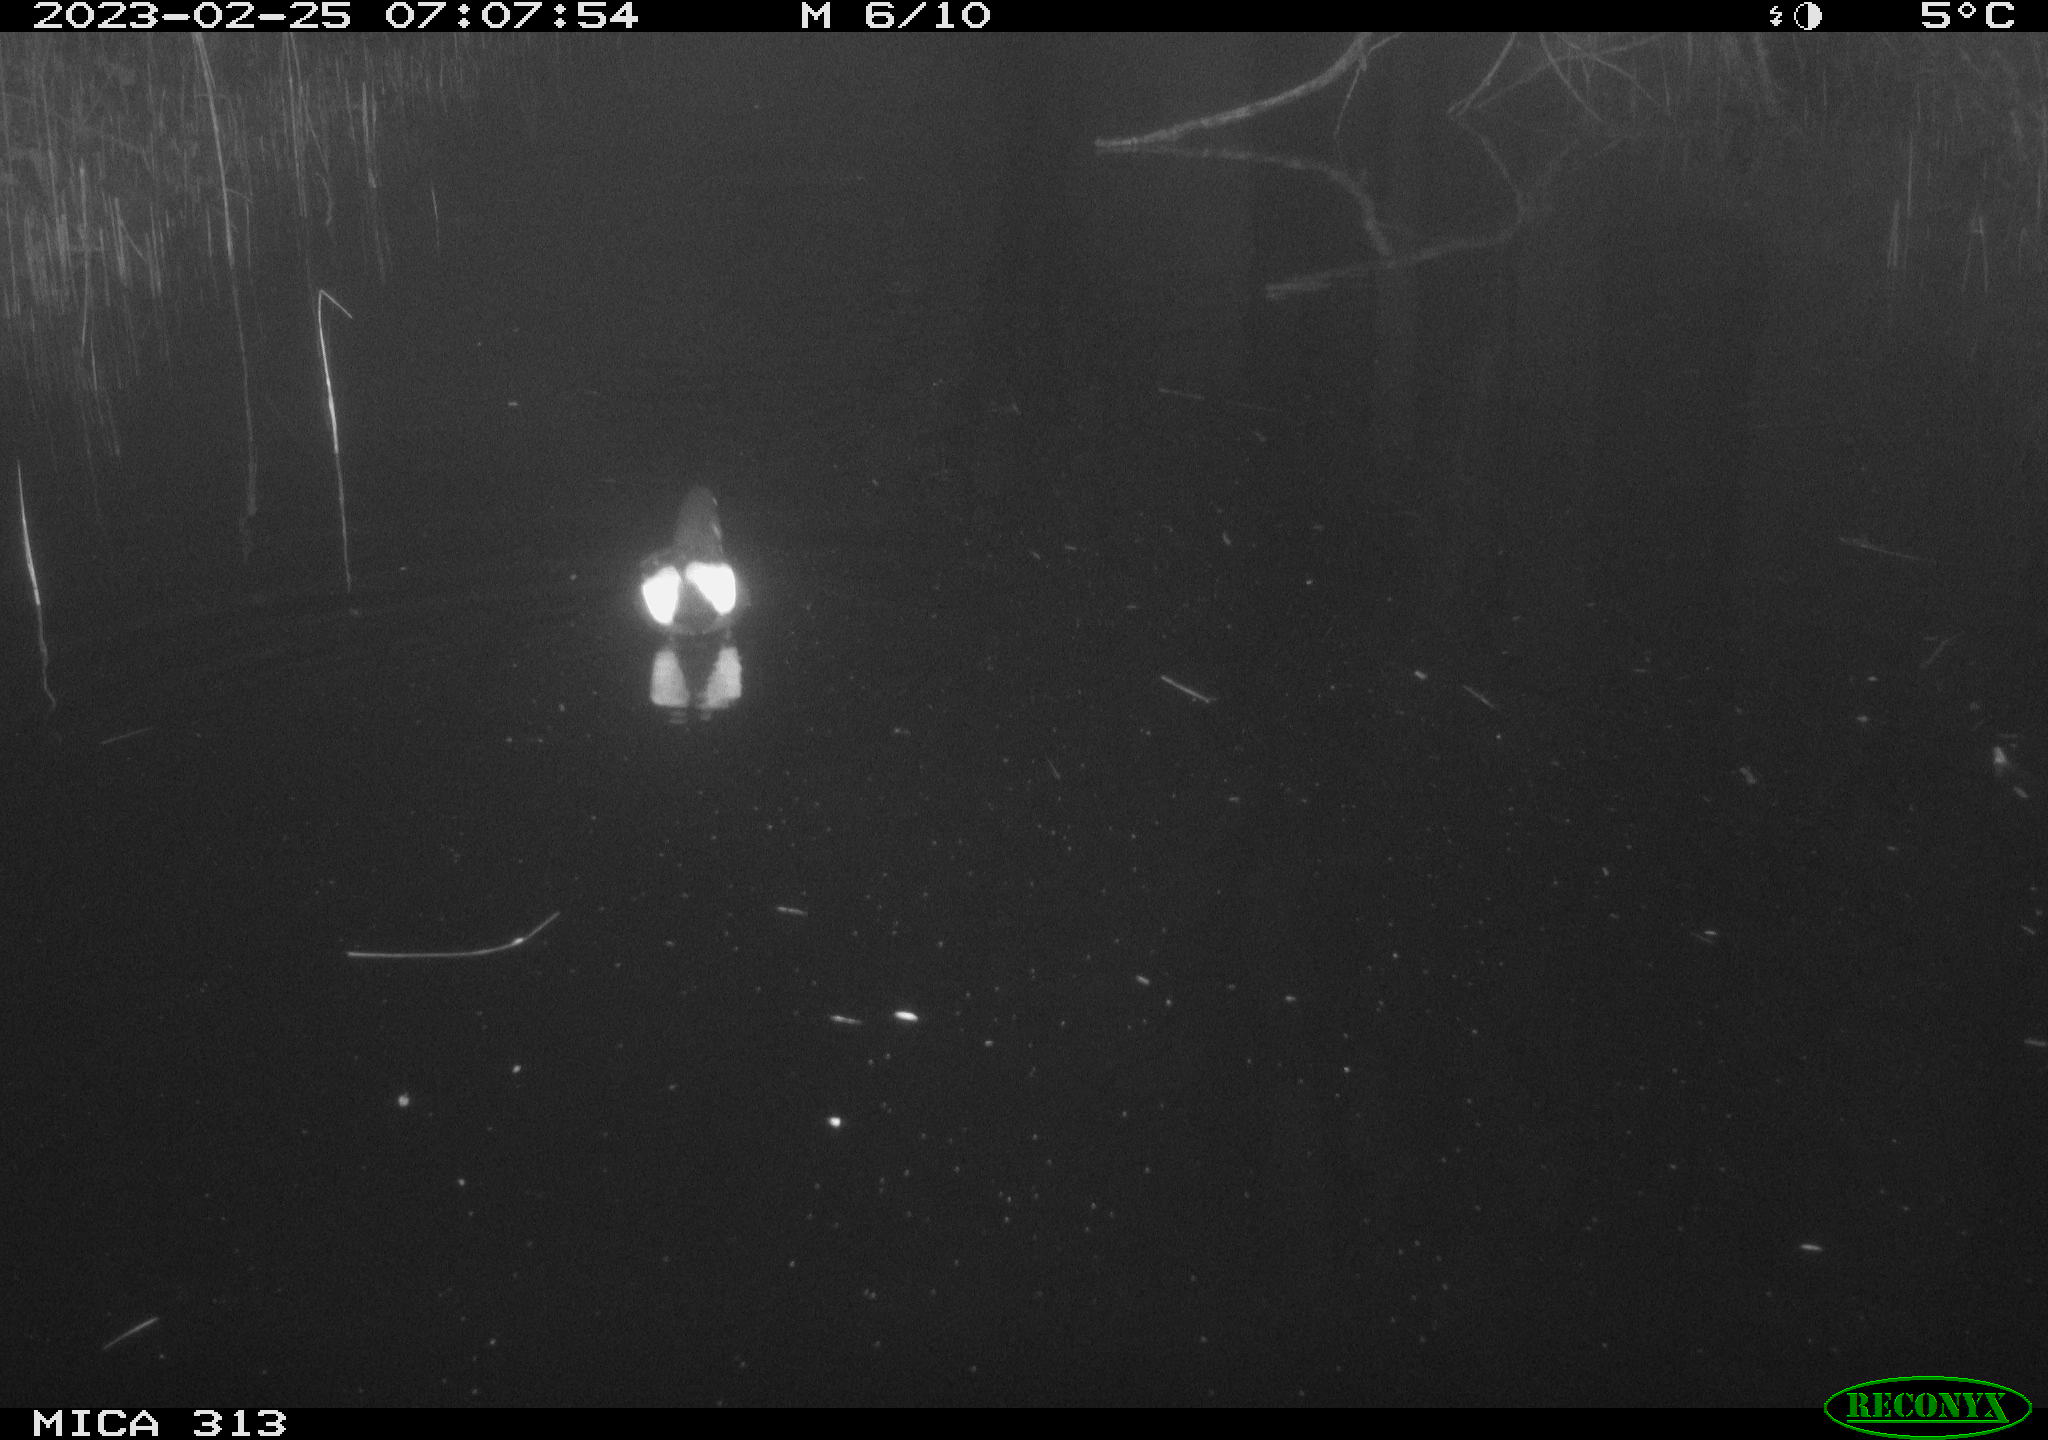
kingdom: Animalia
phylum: Chordata
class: Aves
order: Gruiformes
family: Rallidae
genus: Gallinula
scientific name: Gallinula chloropus
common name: Common moorhen
